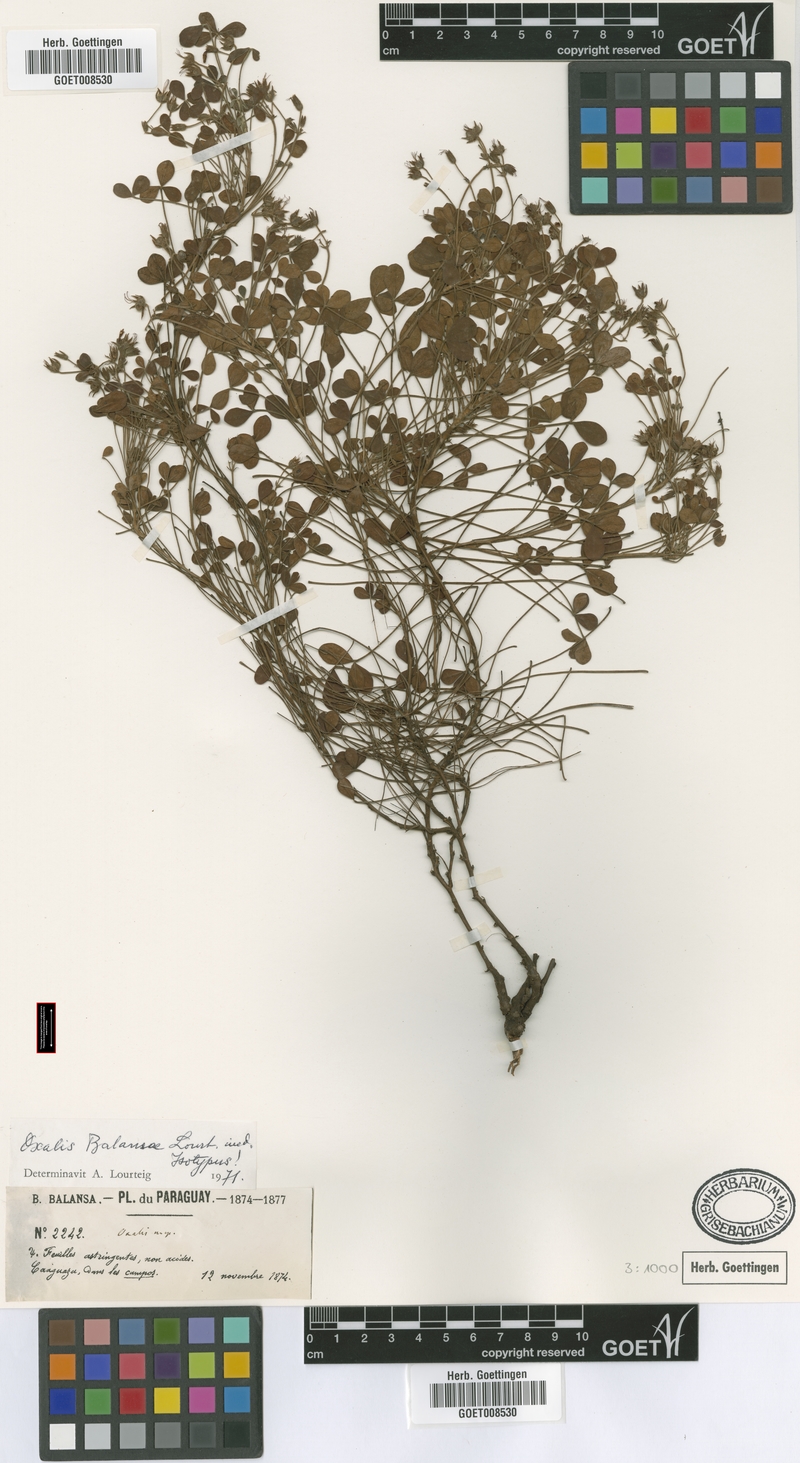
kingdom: Plantae
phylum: Tracheophyta
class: Magnoliopsida
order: Oxalidales
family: Oxalidaceae
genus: Oxalis
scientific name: Oxalis balansae
